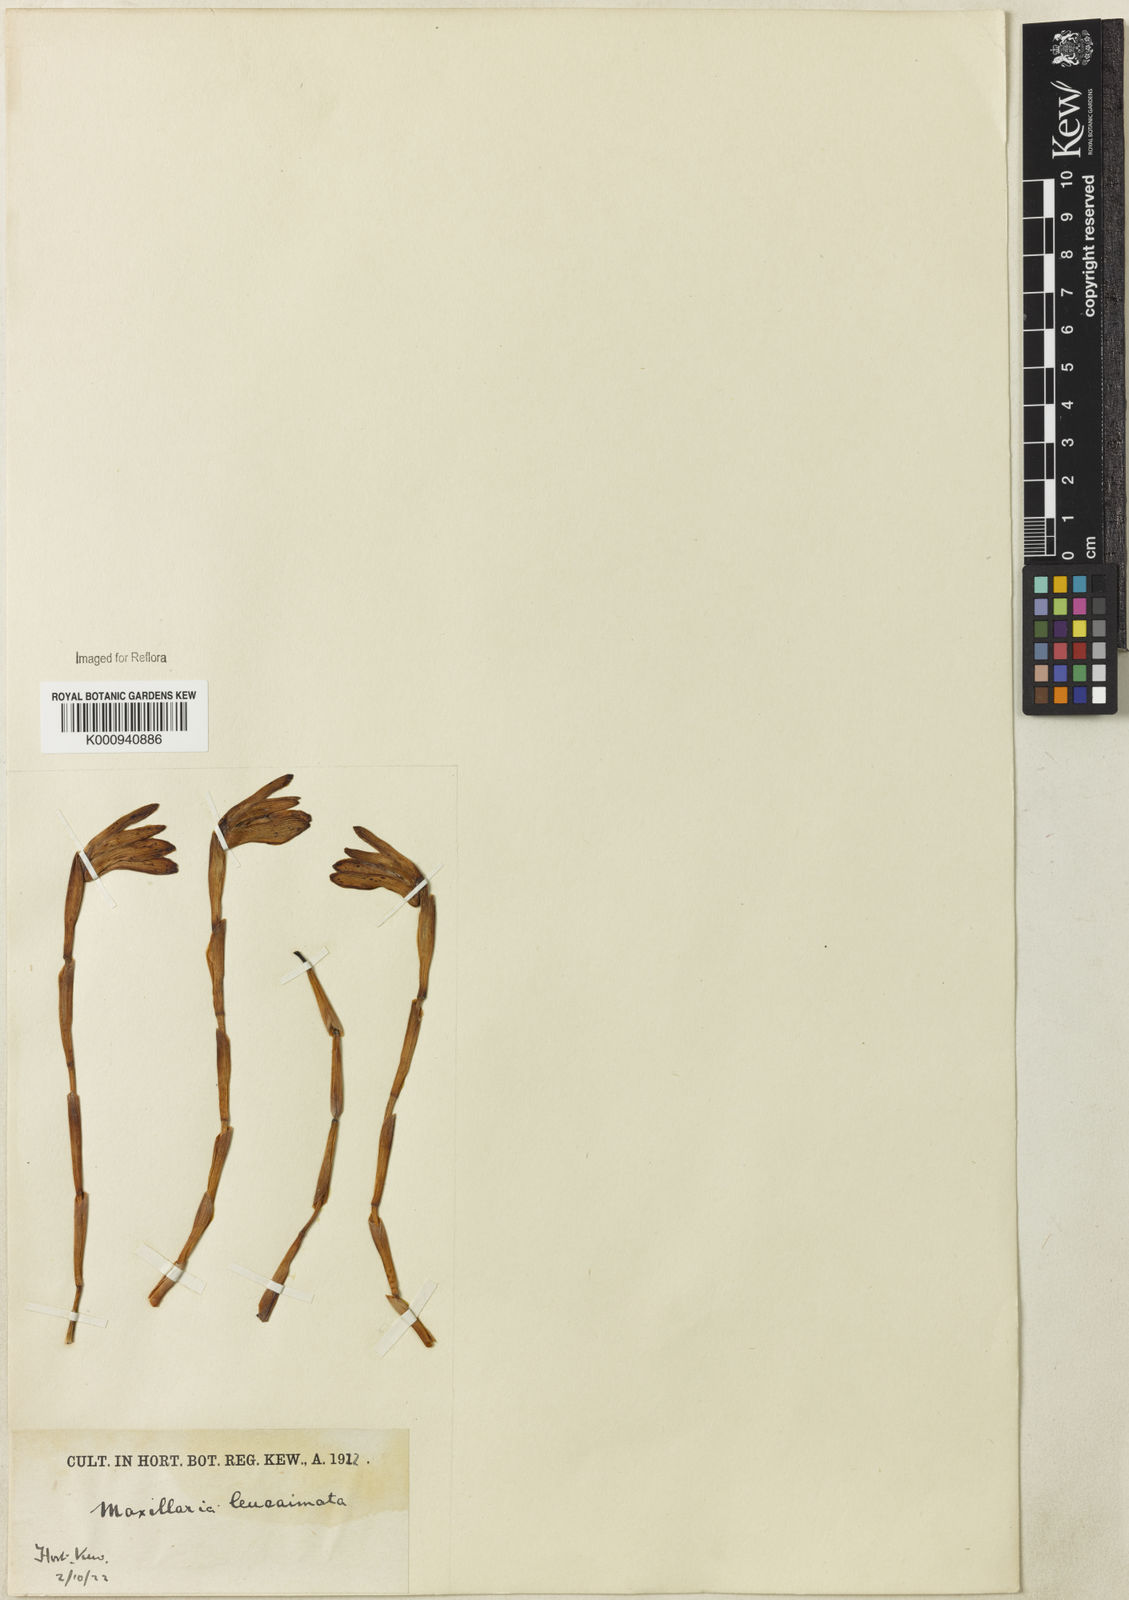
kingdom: Plantae
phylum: Tracheophyta
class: Liliopsida
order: Asparagales
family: Orchidaceae
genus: Maxillaria
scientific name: Maxillaria leucaimata
